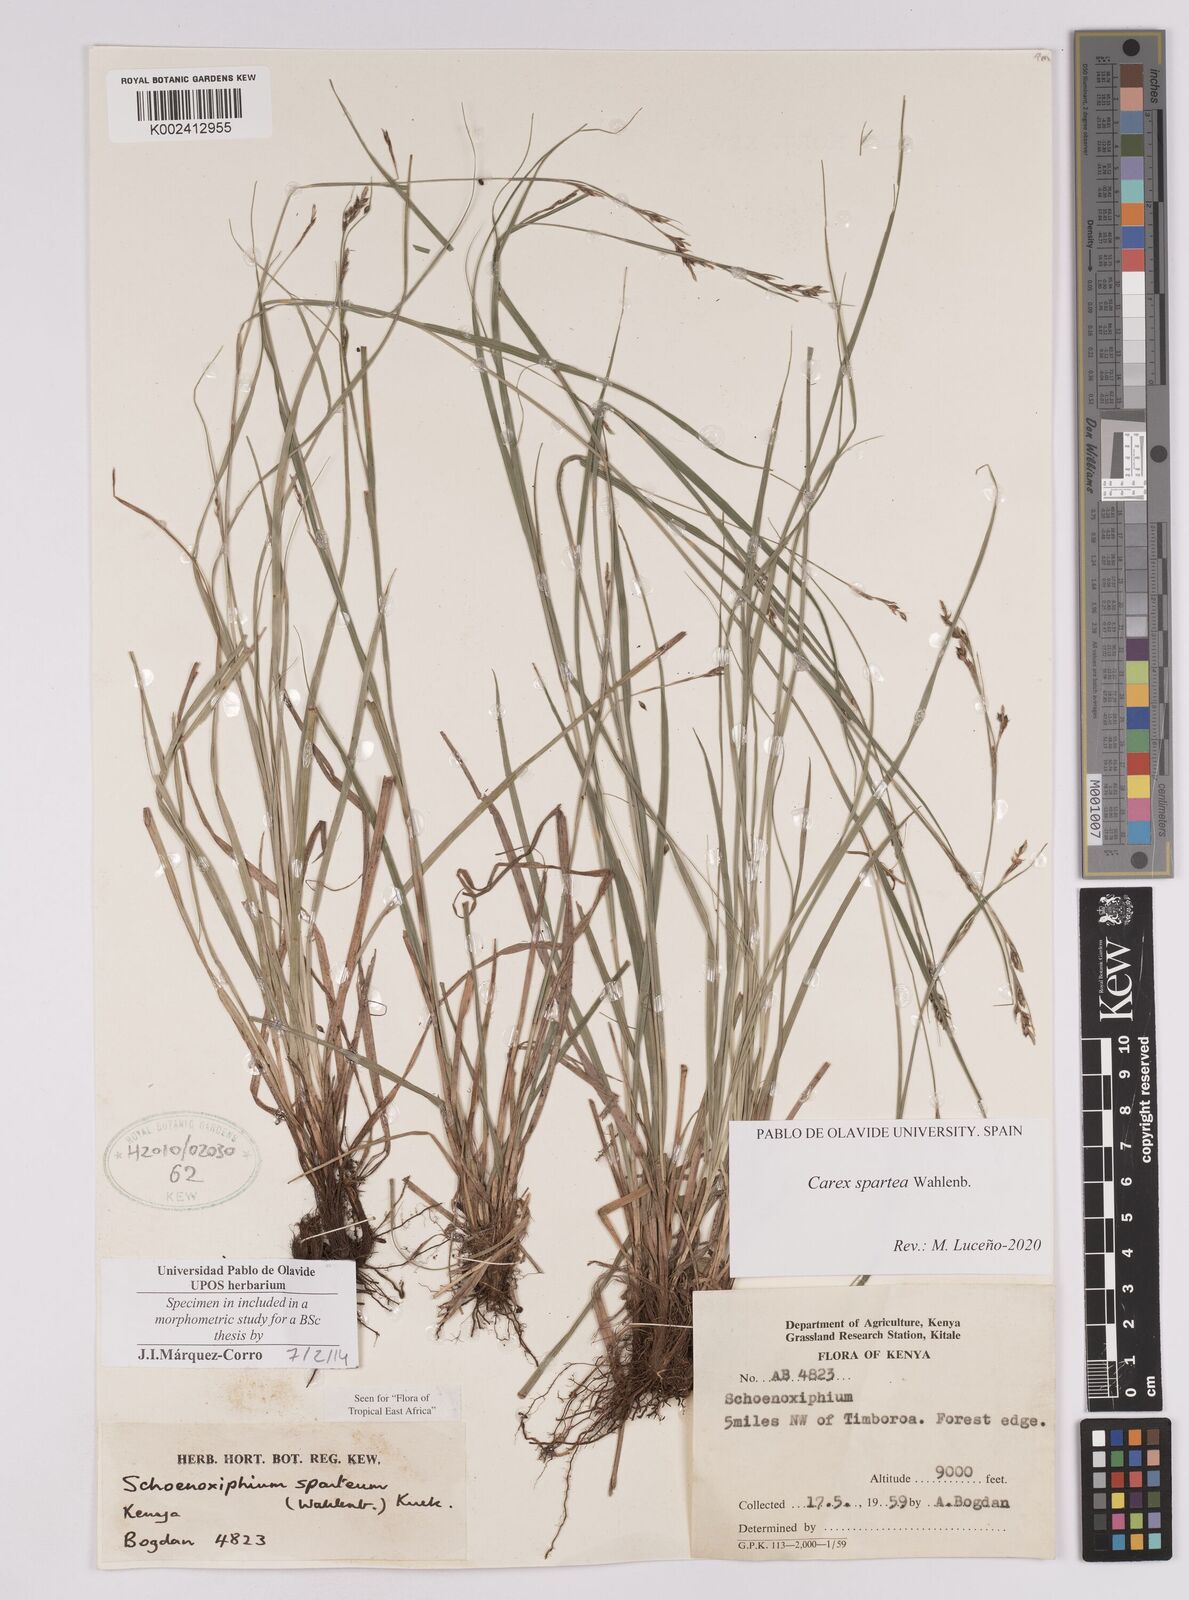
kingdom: Plantae
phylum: Tracheophyta
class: Liliopsida
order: Poales
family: Cyperaceae
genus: Carex
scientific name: Carex schimperiana
